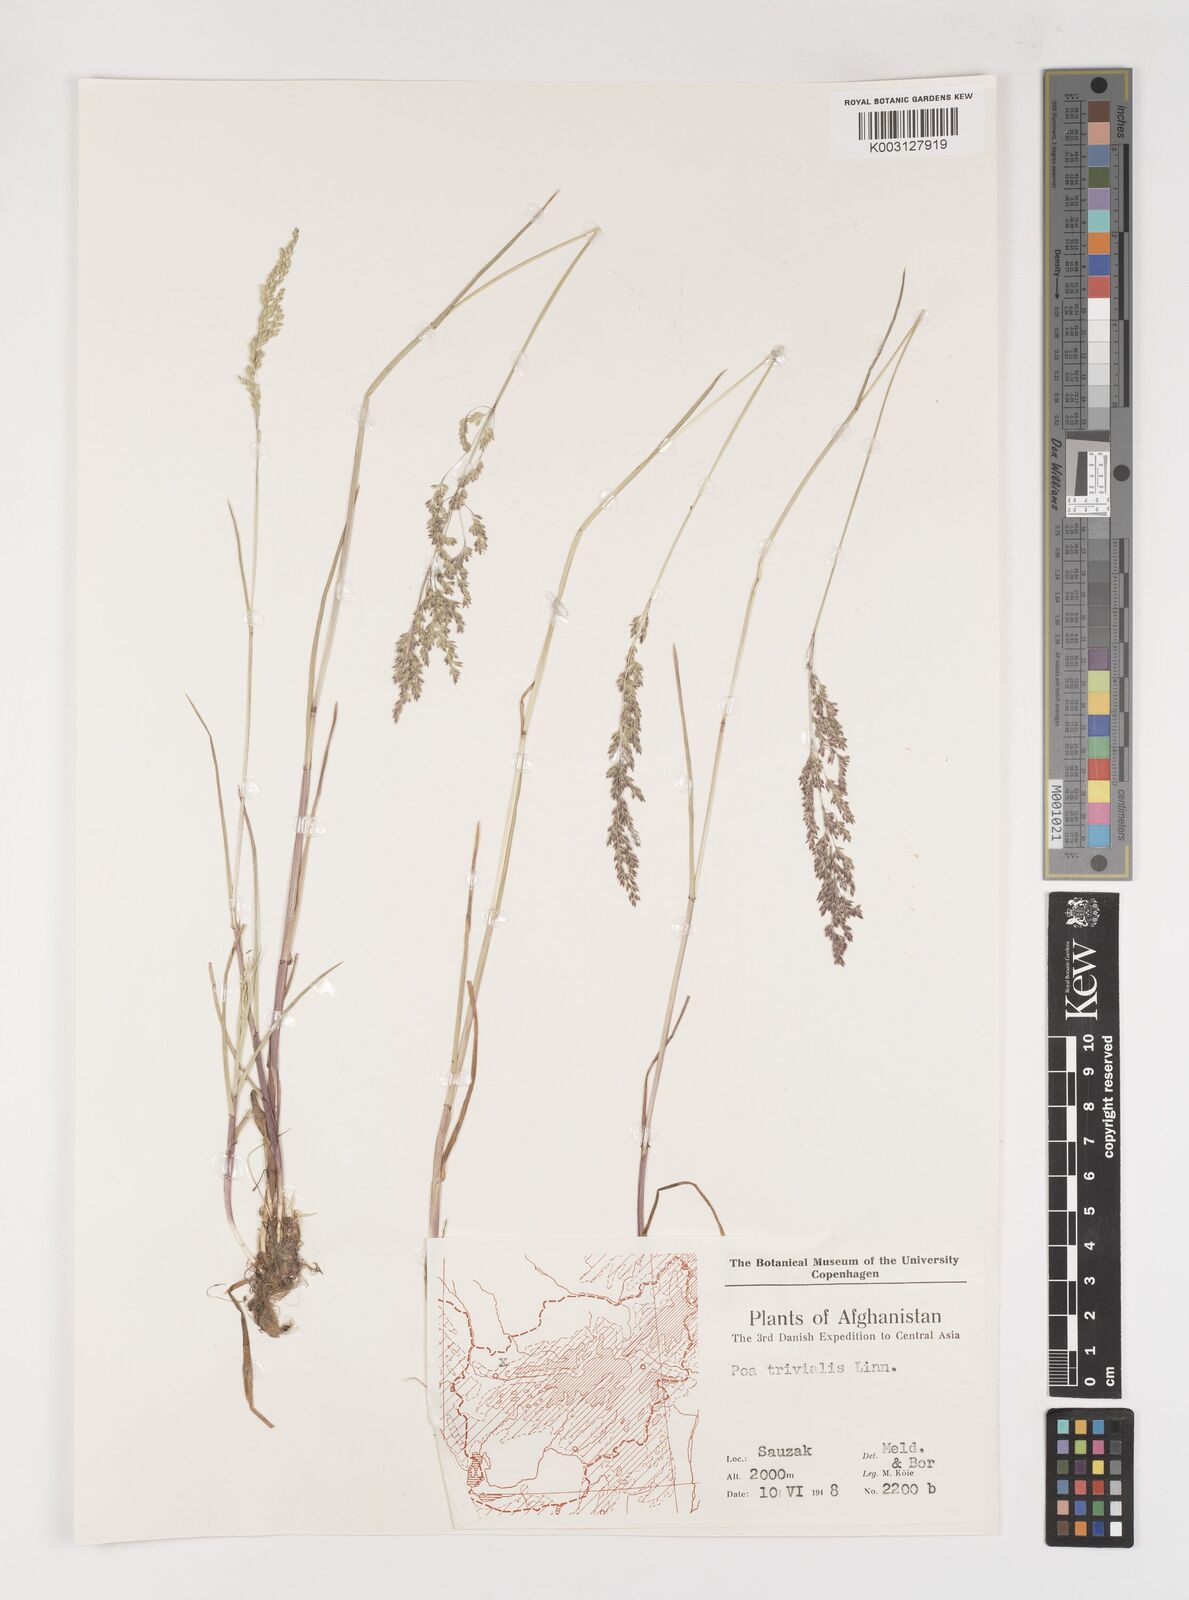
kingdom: Plantae
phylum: Tracheophyta
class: Liliopsida
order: Poales
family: Poaceae
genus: Poa
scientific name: Poa trivialis
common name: Rough bluegrass
